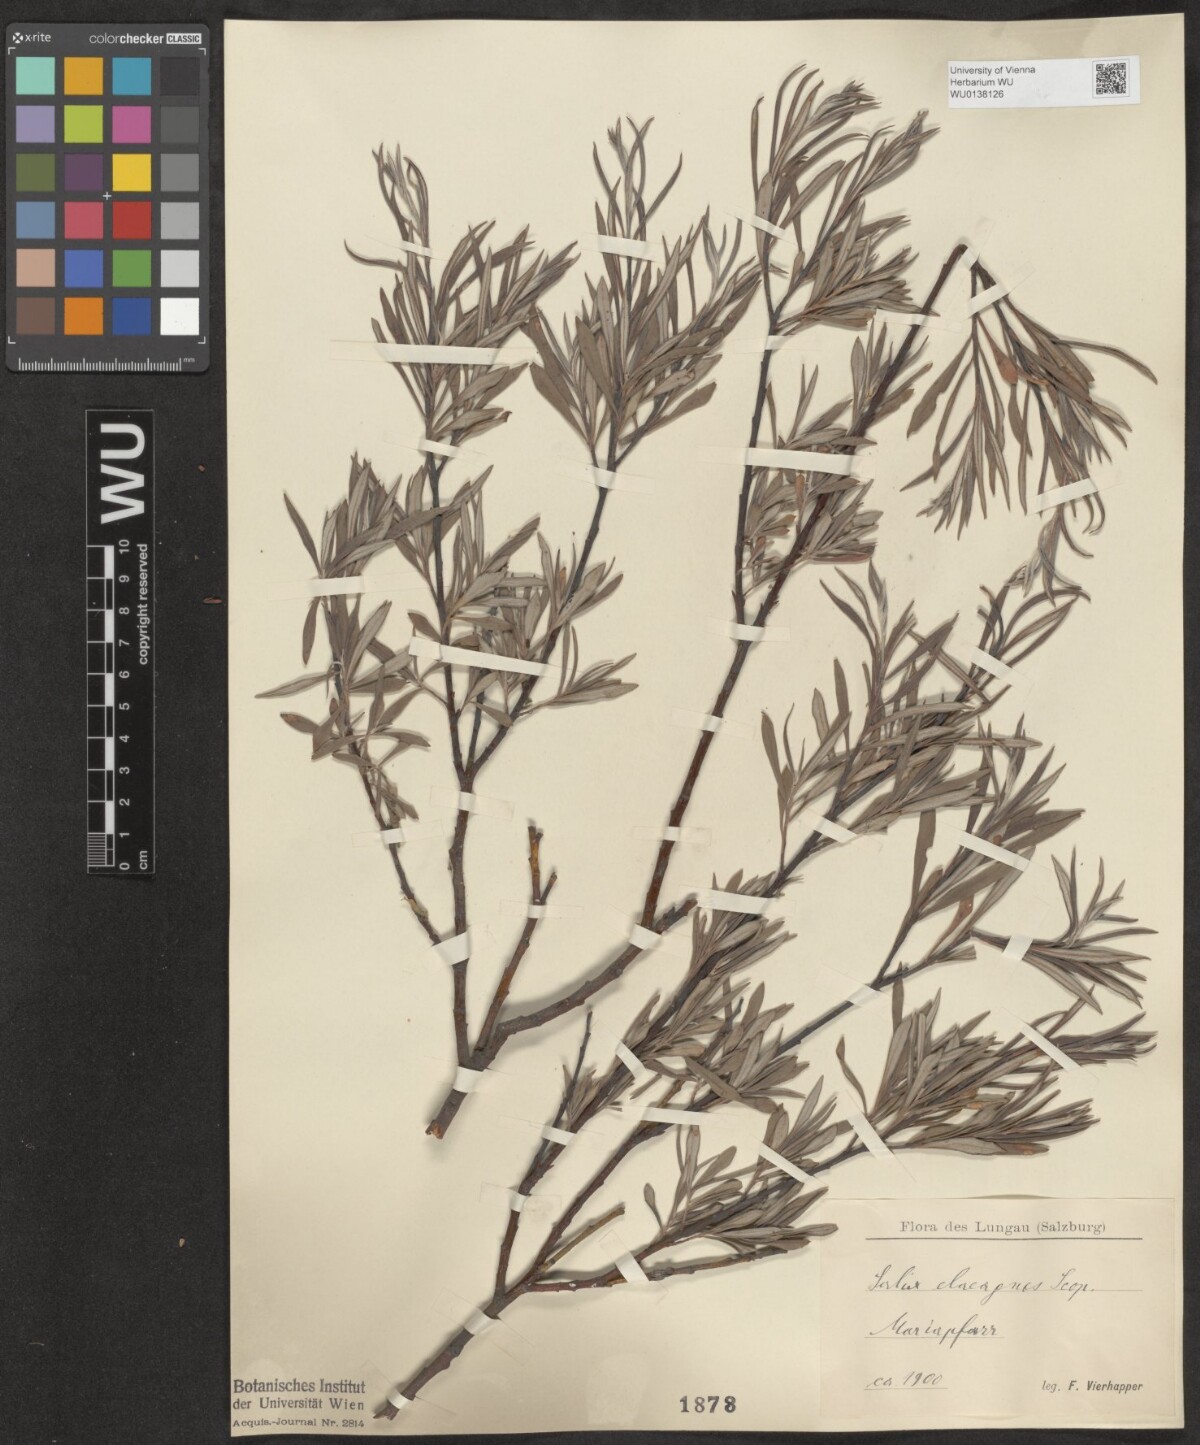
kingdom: Plantae
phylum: Tracheophyta
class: Magnoliopsida
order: Malpighiales
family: Salicaceae
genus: Salix
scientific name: Salix eleagnos
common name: Elaeagnus willow
